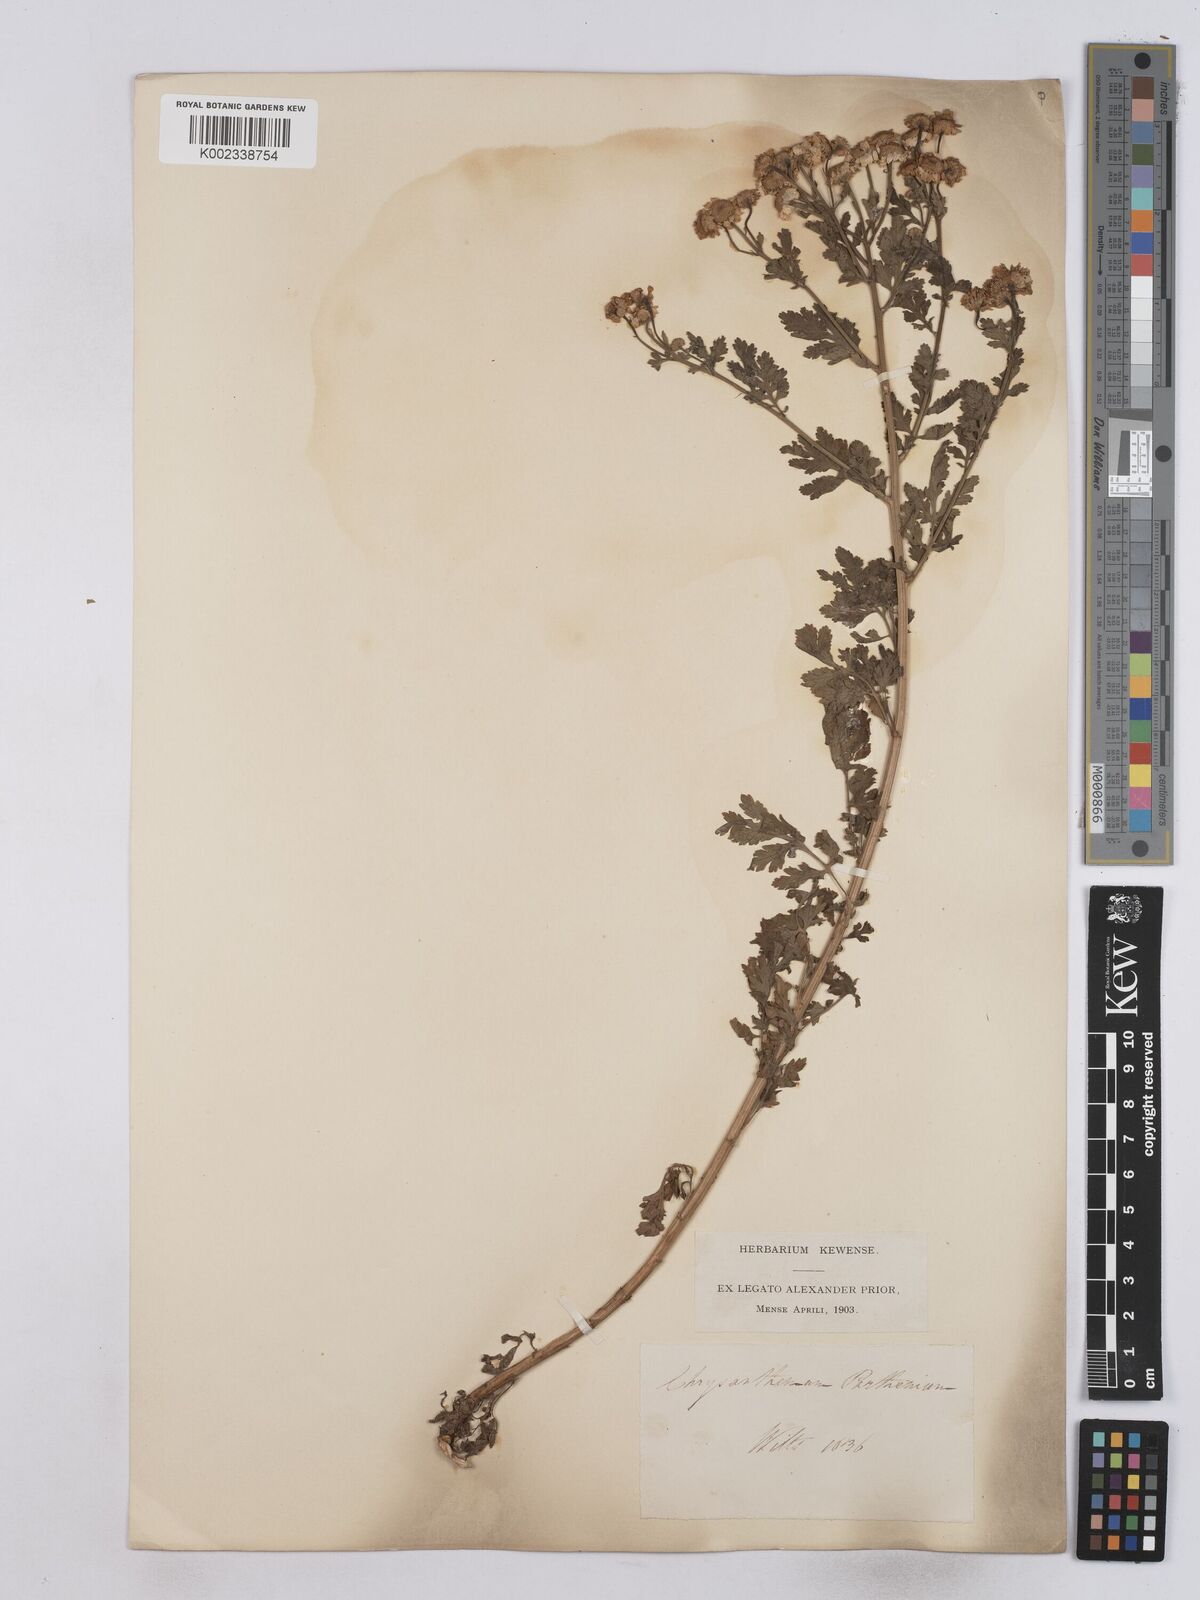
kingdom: Plantae
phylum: Tracheophyta
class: Magnoliopsida
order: Asterales
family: Asteraceae
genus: Tanacetum
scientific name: Tanacetum parthenium
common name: Feverfew
